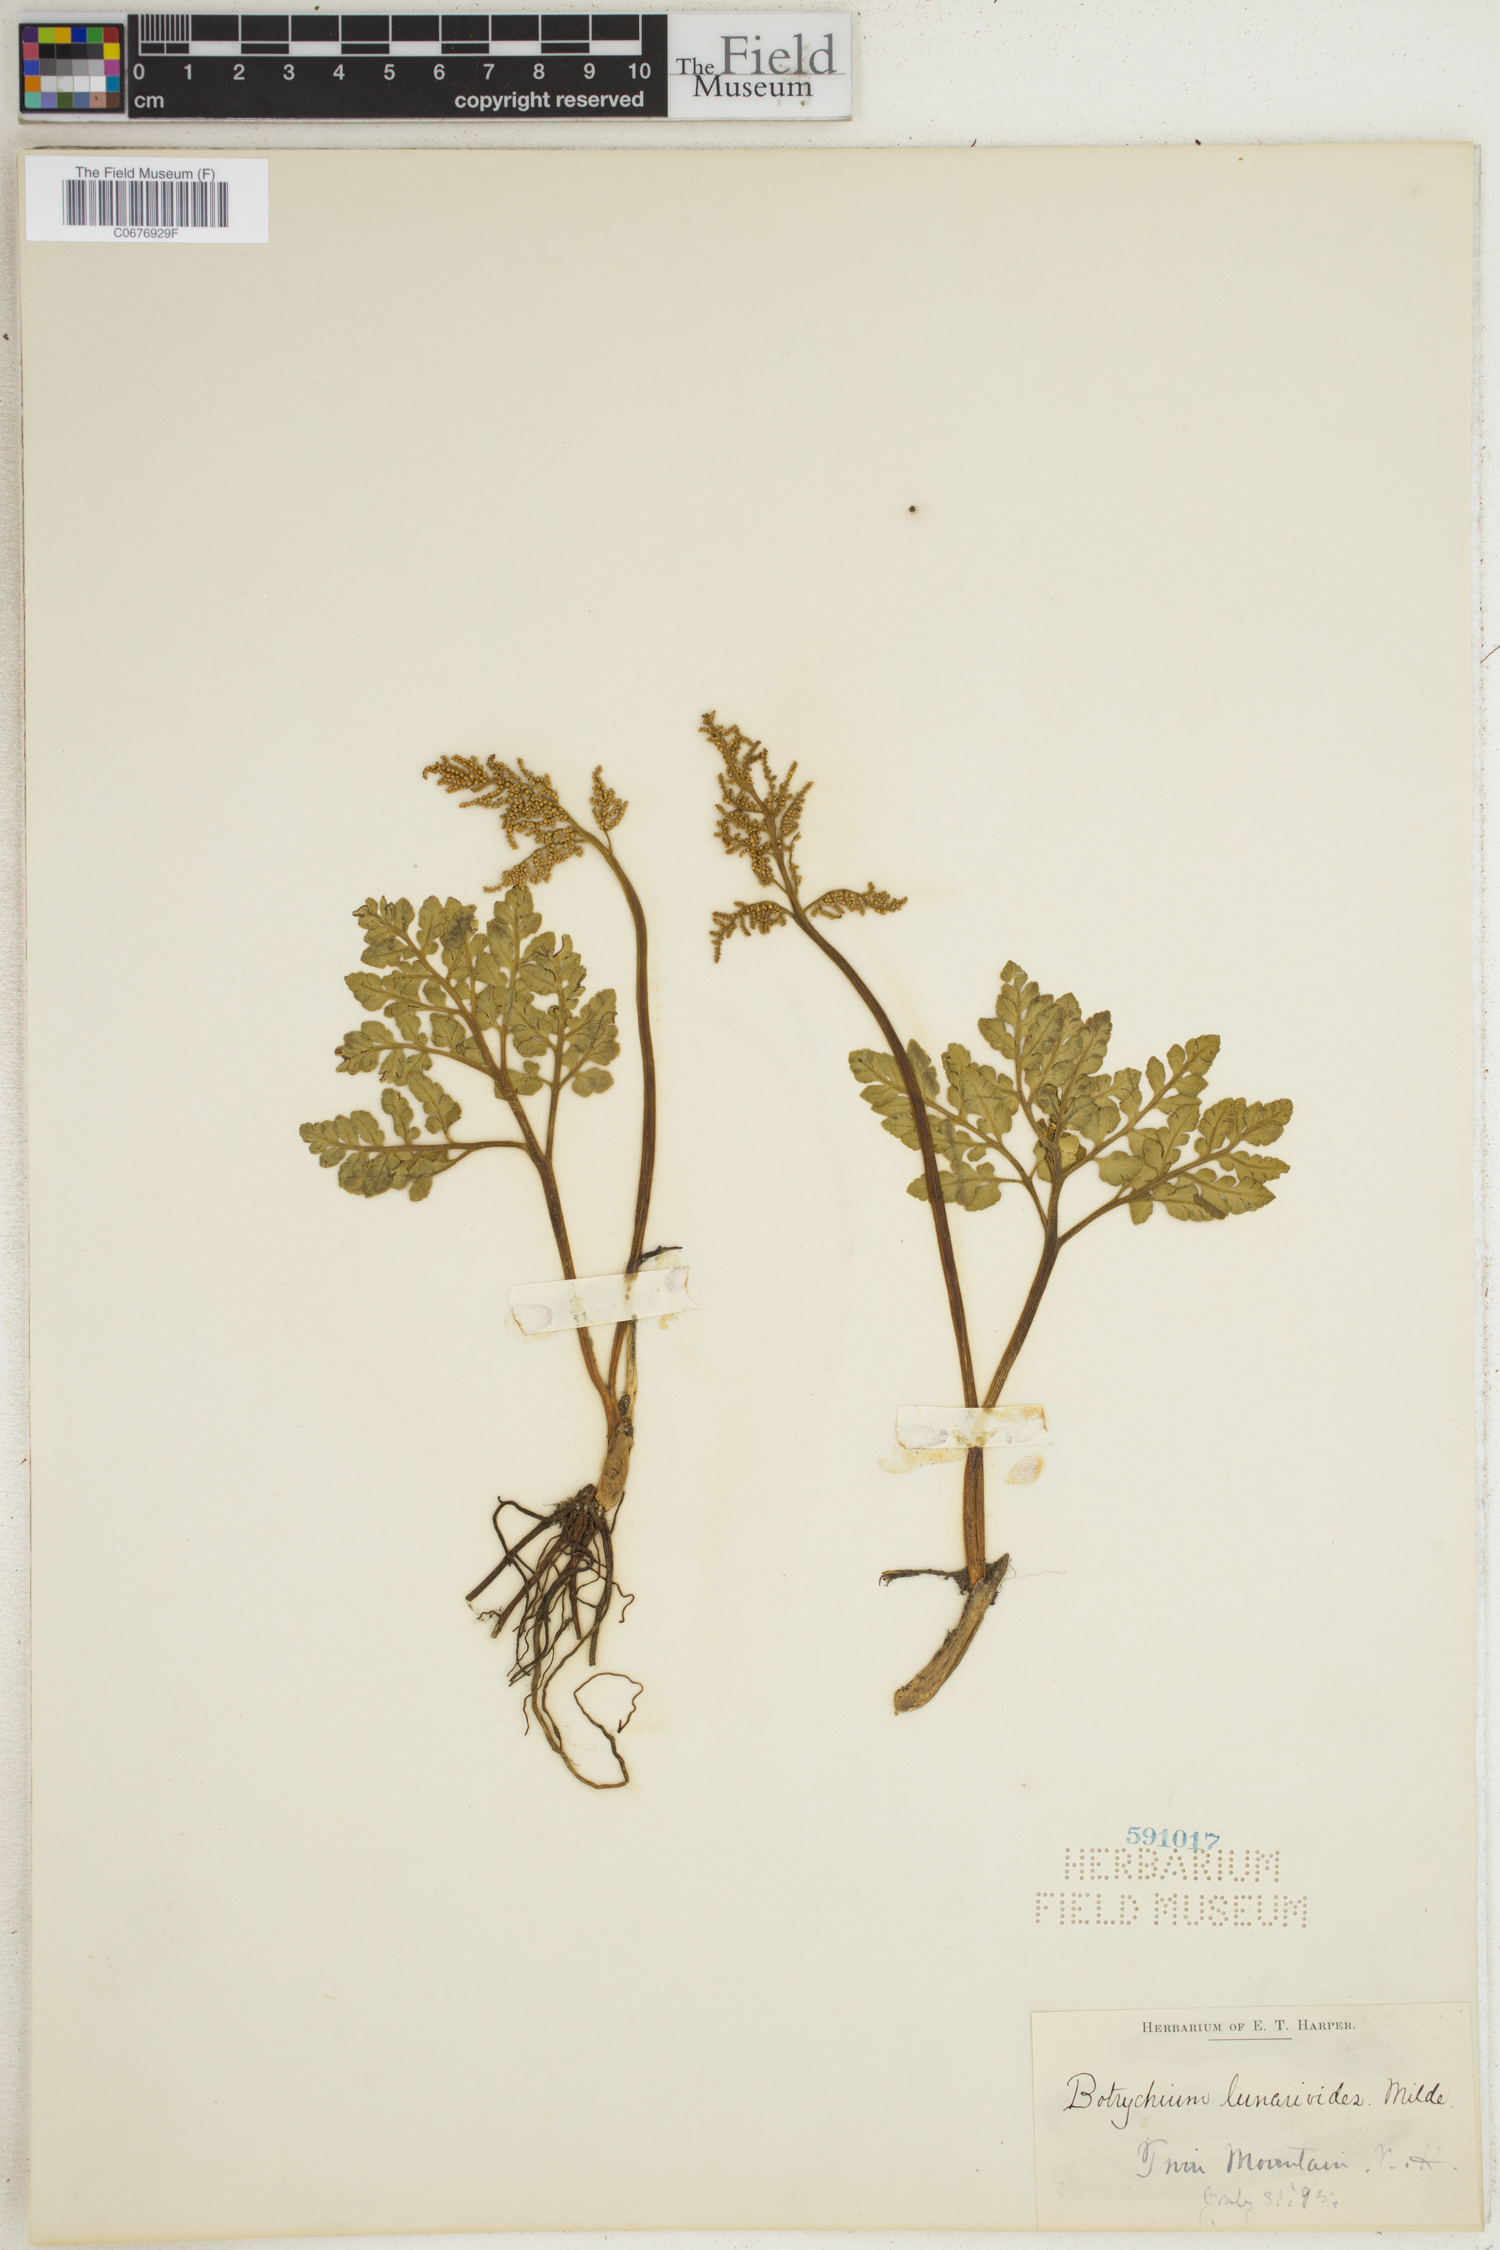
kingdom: Plantae
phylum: Tracheophyta
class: Polypodiopsida
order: Ophioglossales
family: Ophioglossaceae
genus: Sceptridium
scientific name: Sceptridium lunarioides
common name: Prostrate grapefern
